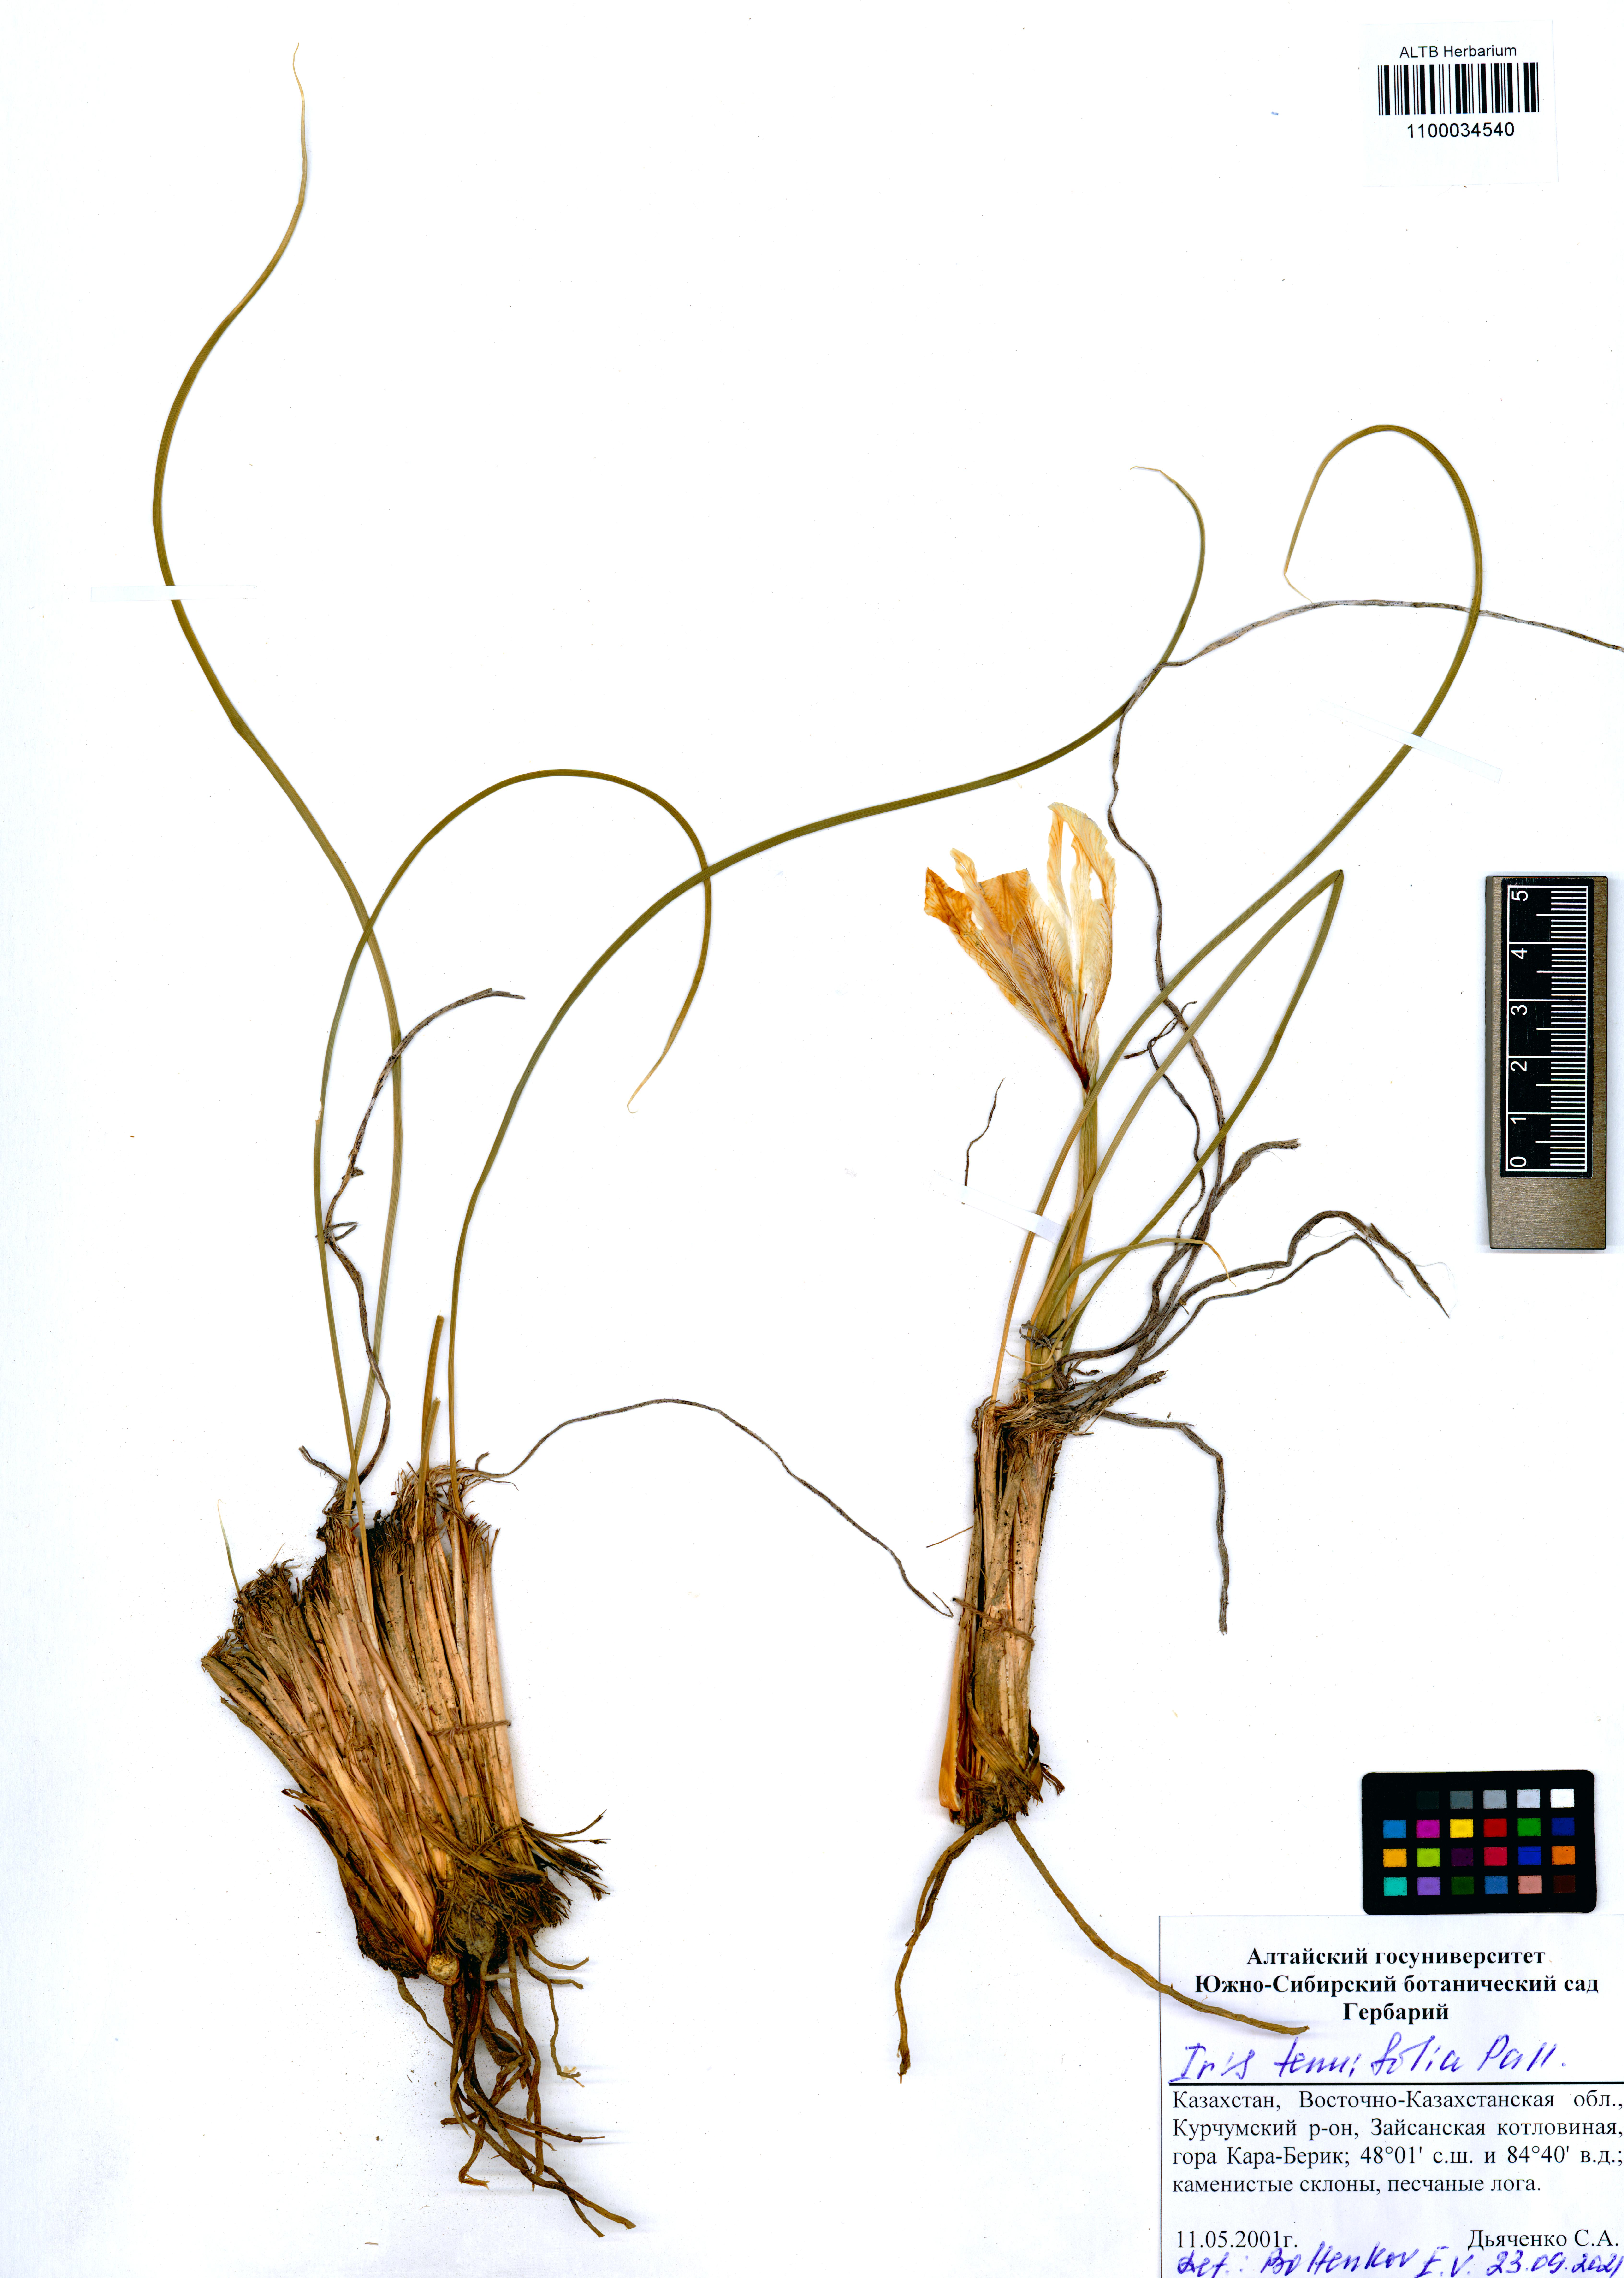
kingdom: Plantae
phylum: Tracheophyta
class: Liliopsida
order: Asparagales
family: Iridaceae
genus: Iris
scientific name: Iris tenuifolia
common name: Slender-leaf iris
